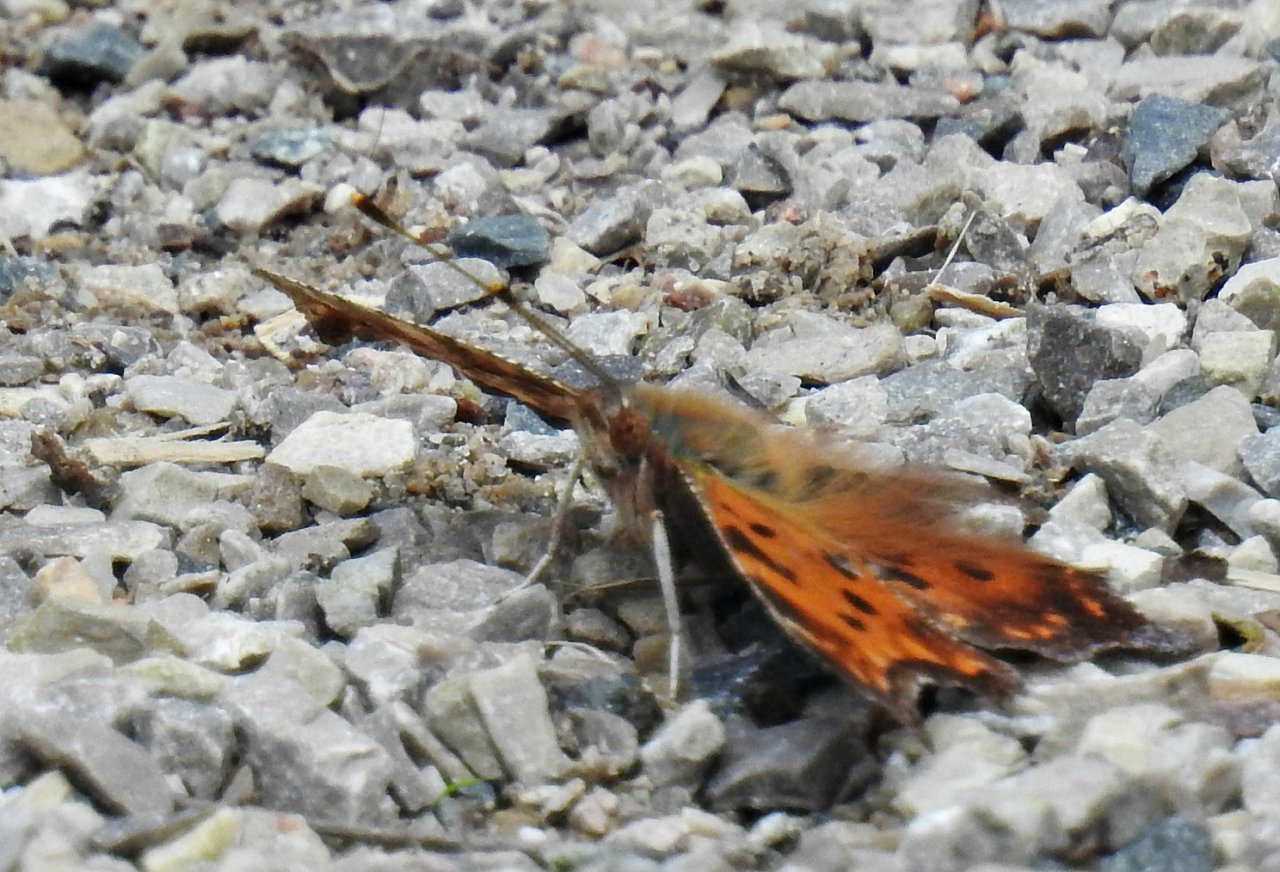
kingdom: Animalia
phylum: Arthropoda
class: Insecta
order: Lepidoptera
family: Nymphalidae
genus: Polygonia
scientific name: Polygonia comma
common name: Eastern Comma
